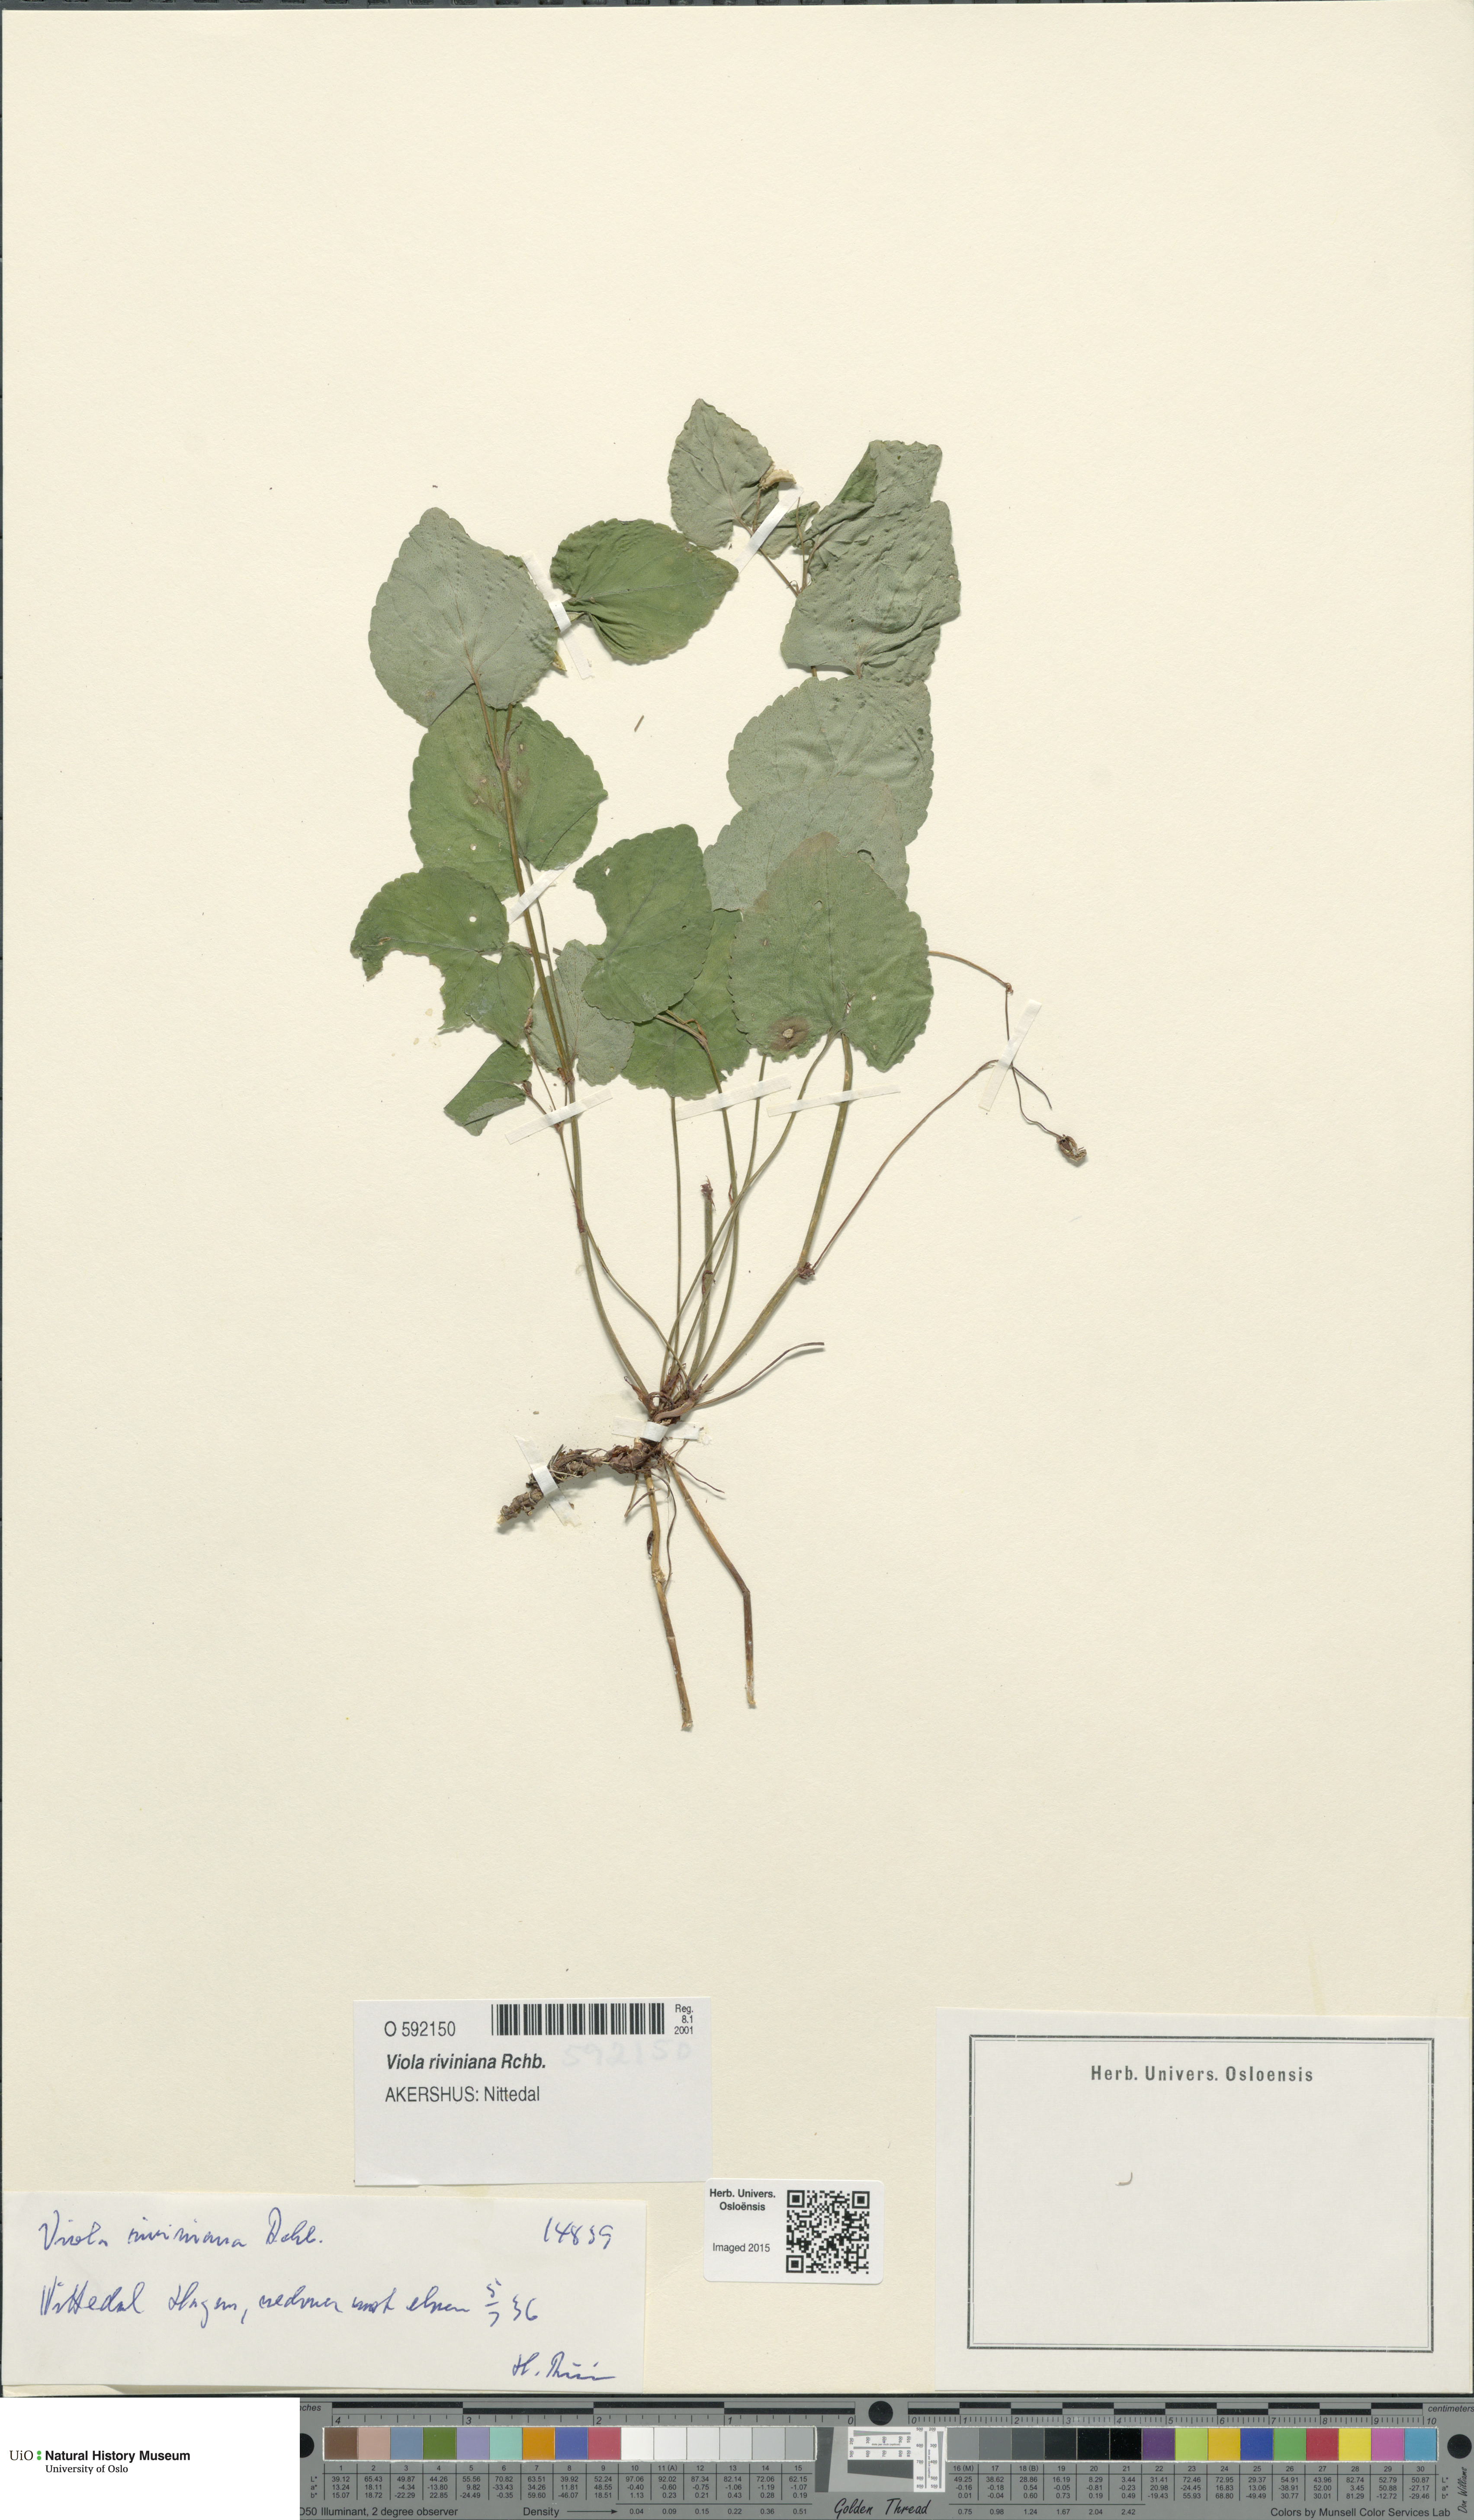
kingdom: Plantae
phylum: Tracheophyta
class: Magnoliopsida
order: Malpighiales
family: Violaceae
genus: Viola
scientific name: Viola riviniana
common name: Common dog-violet
